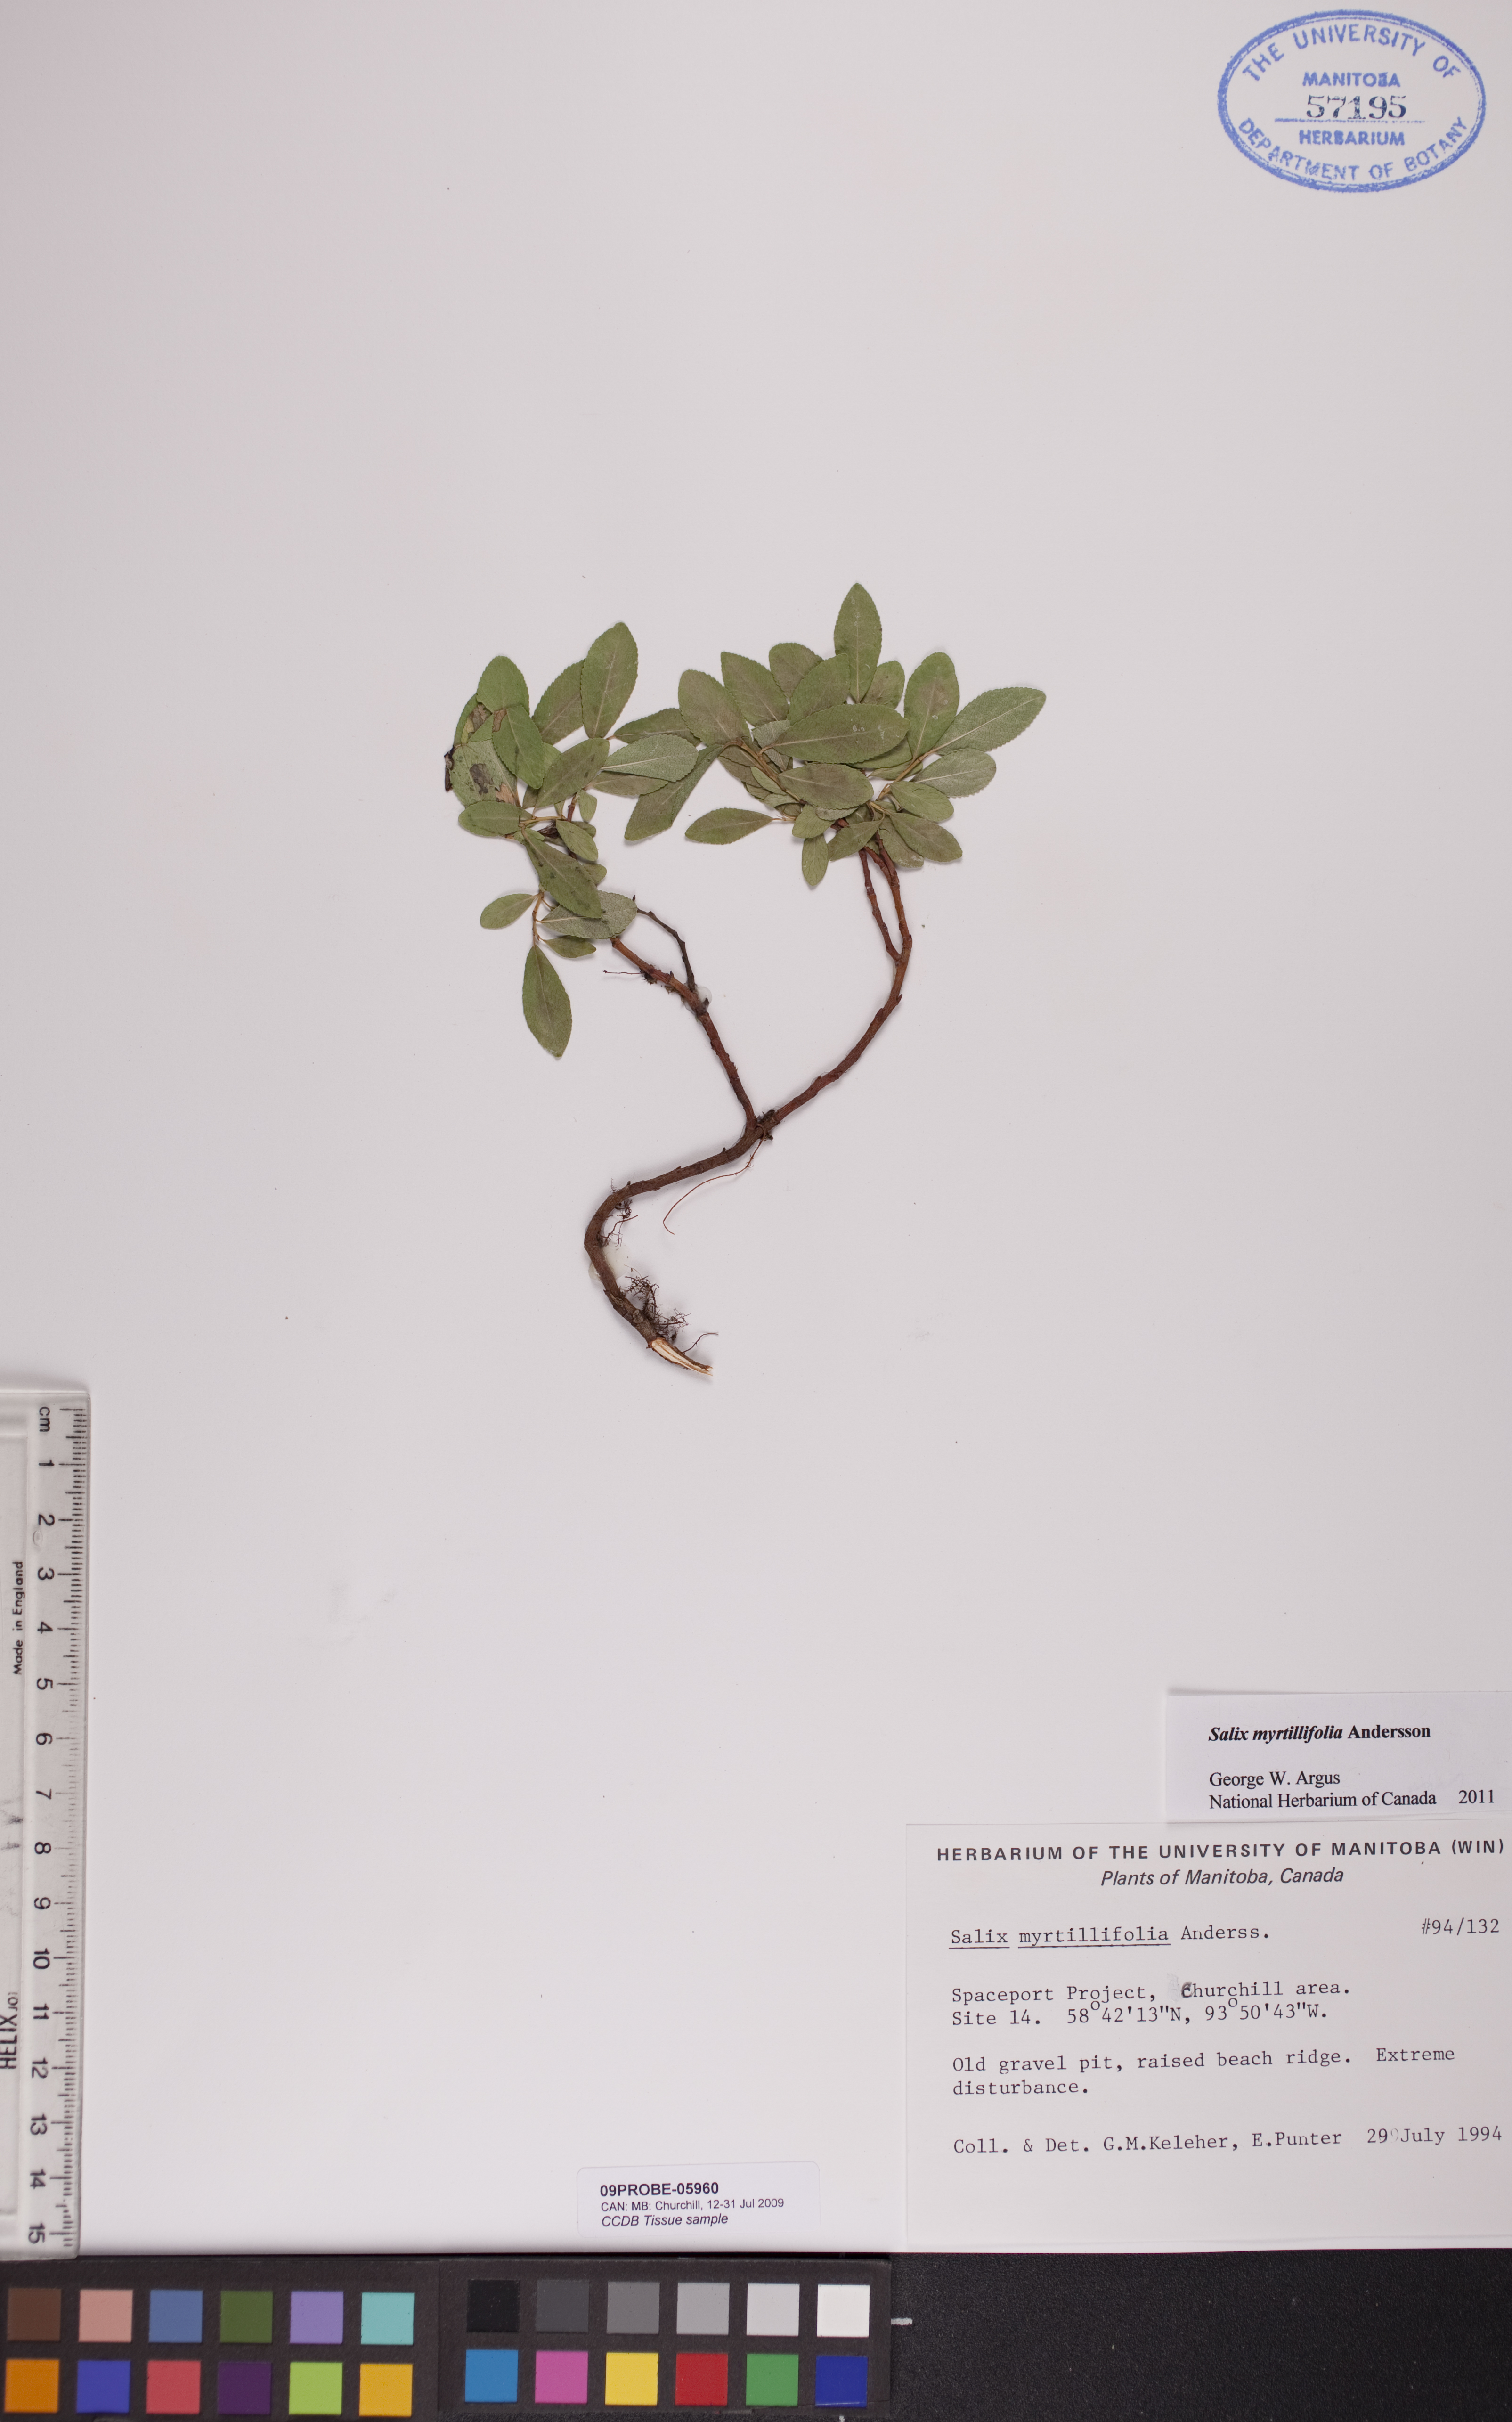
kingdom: Plantae
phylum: Tracheophyta
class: Magnoliopsida
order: Malpighiales
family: Salicaceae
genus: Salix
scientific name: Salix myrtillifolia
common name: Bilberry willow
